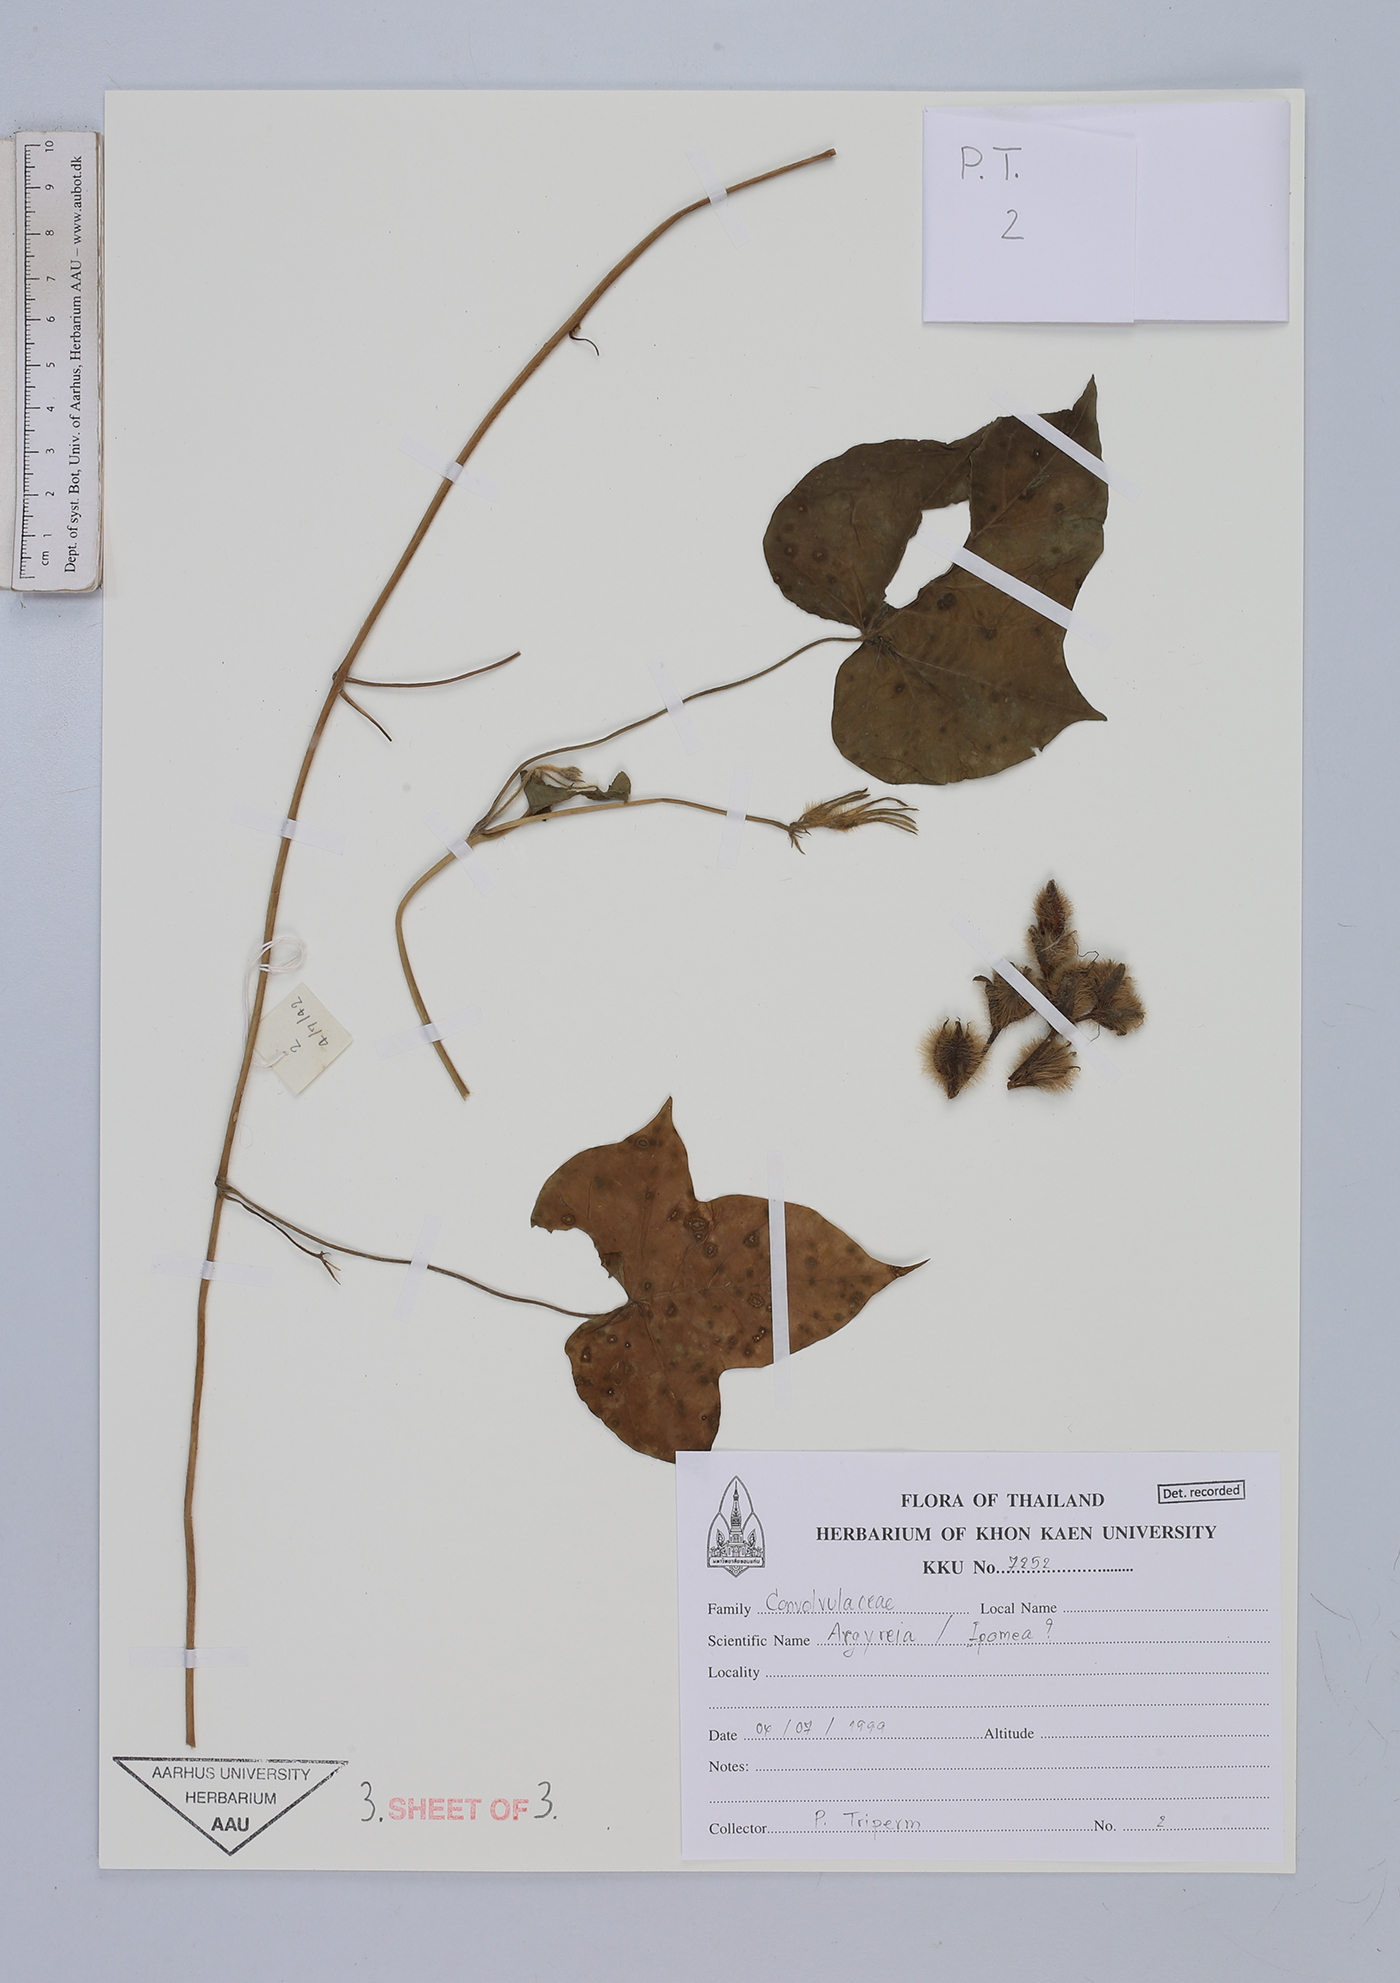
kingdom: Plantae
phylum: Tracheophyta
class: Magnoliopsida
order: Solanales
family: Convolvulaceae
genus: Argyreia
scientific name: Argyreia
